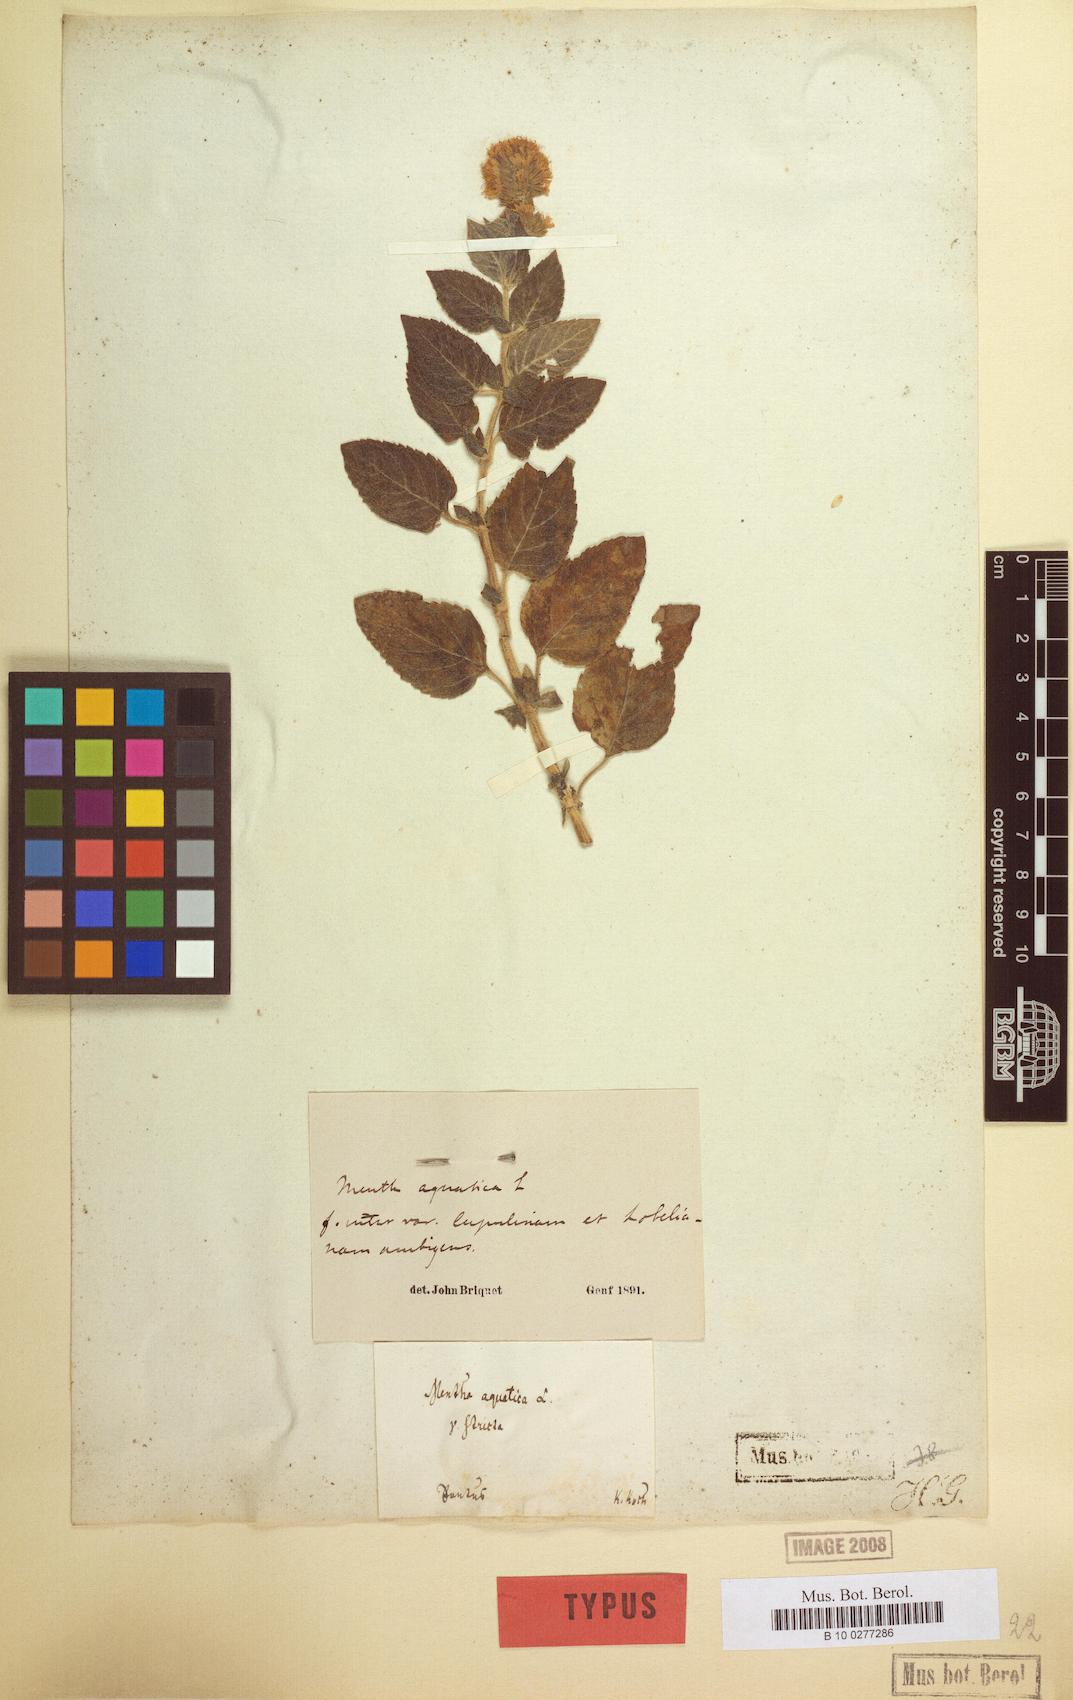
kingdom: Plantae
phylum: Tracheophyta
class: Magnoliopsida
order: Lamiales
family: Lamiaceae
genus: Mentha
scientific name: Mentha aquatica
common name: Water mint
